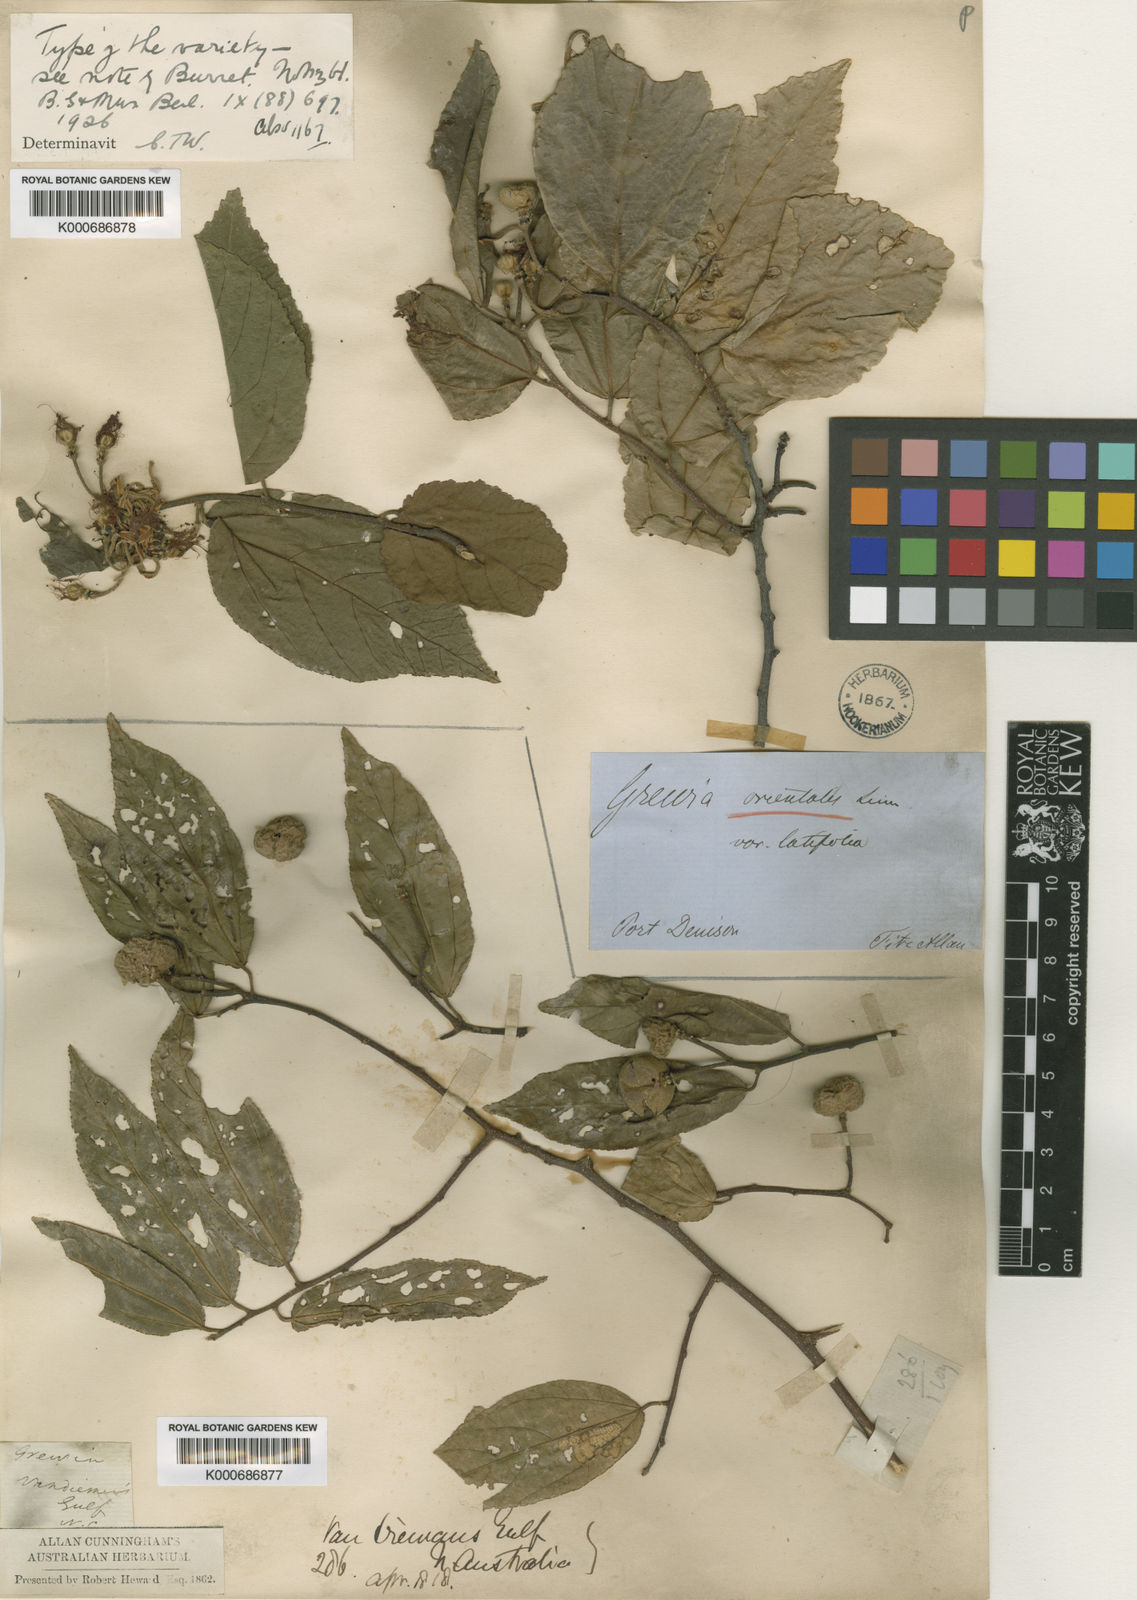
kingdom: Plantae
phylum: Tracheophyta
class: Magnoliopsida
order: Malvales
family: Malvaceae
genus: Grewia
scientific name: Grewia orientalis
